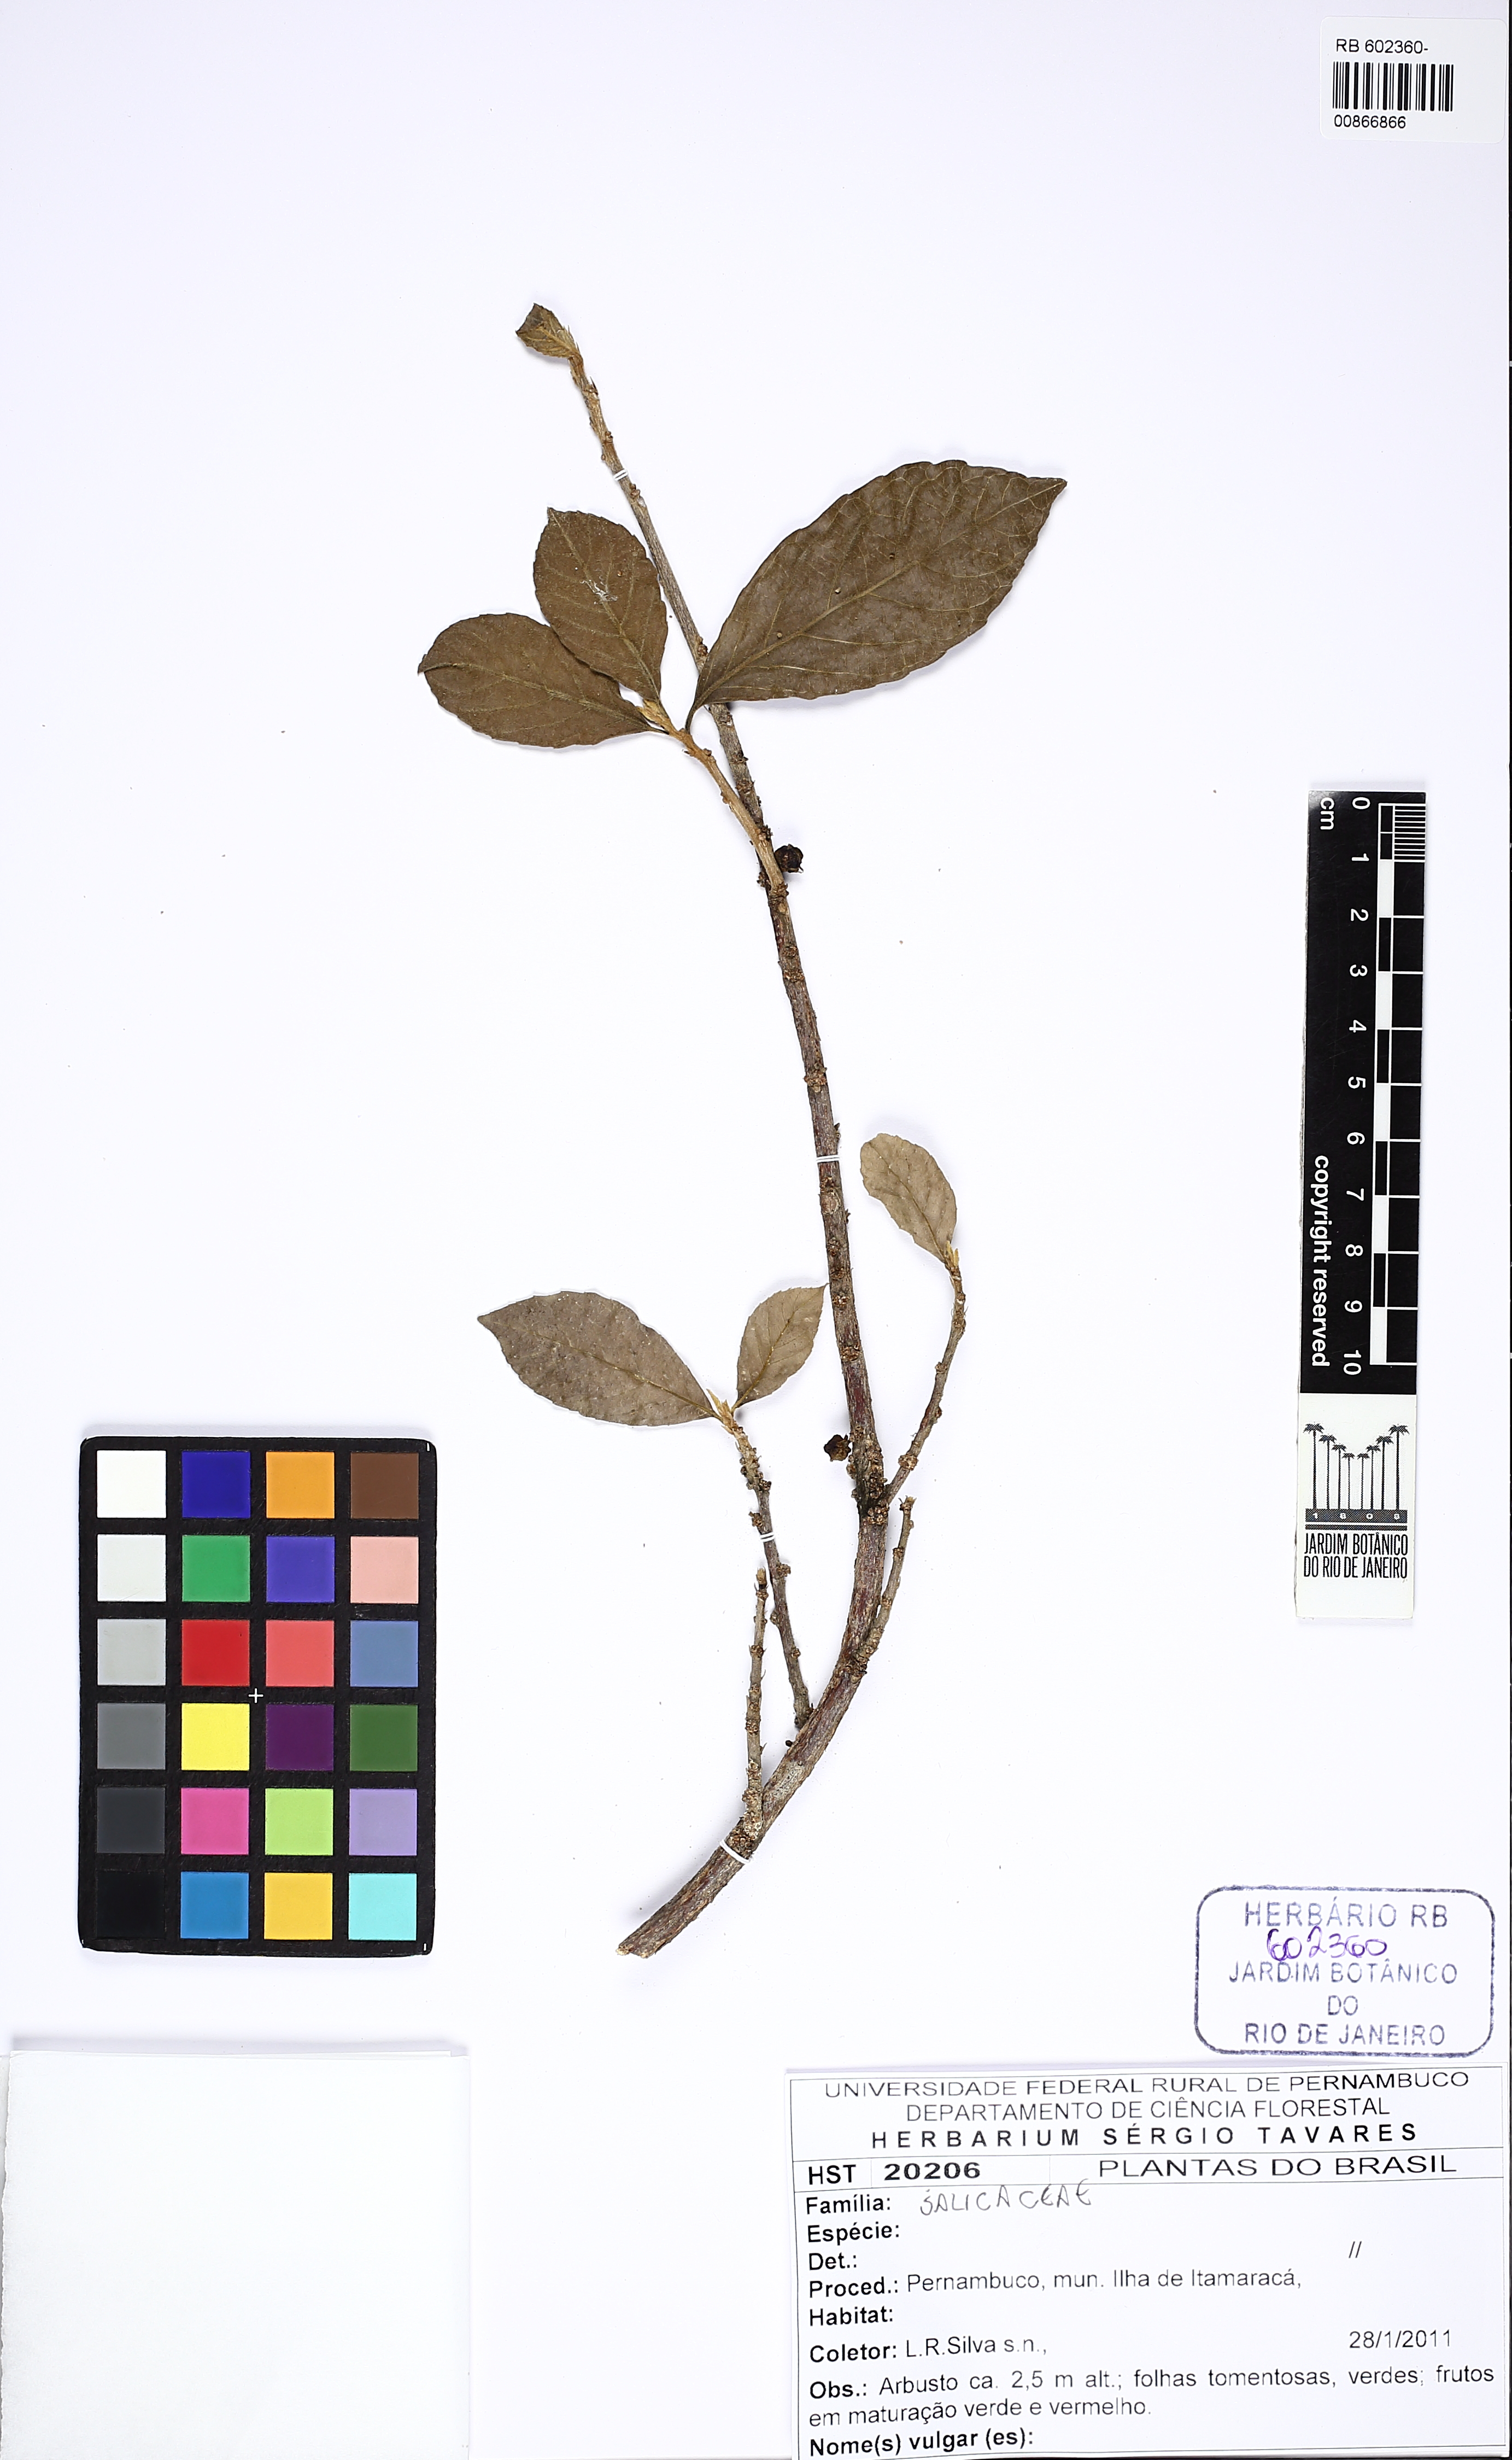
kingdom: Plantae
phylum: Tracheophyta
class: Magnoliopsida
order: Malpighiales
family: Salicaceae
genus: Xylosma
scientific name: Xylosma ciliatifolia
